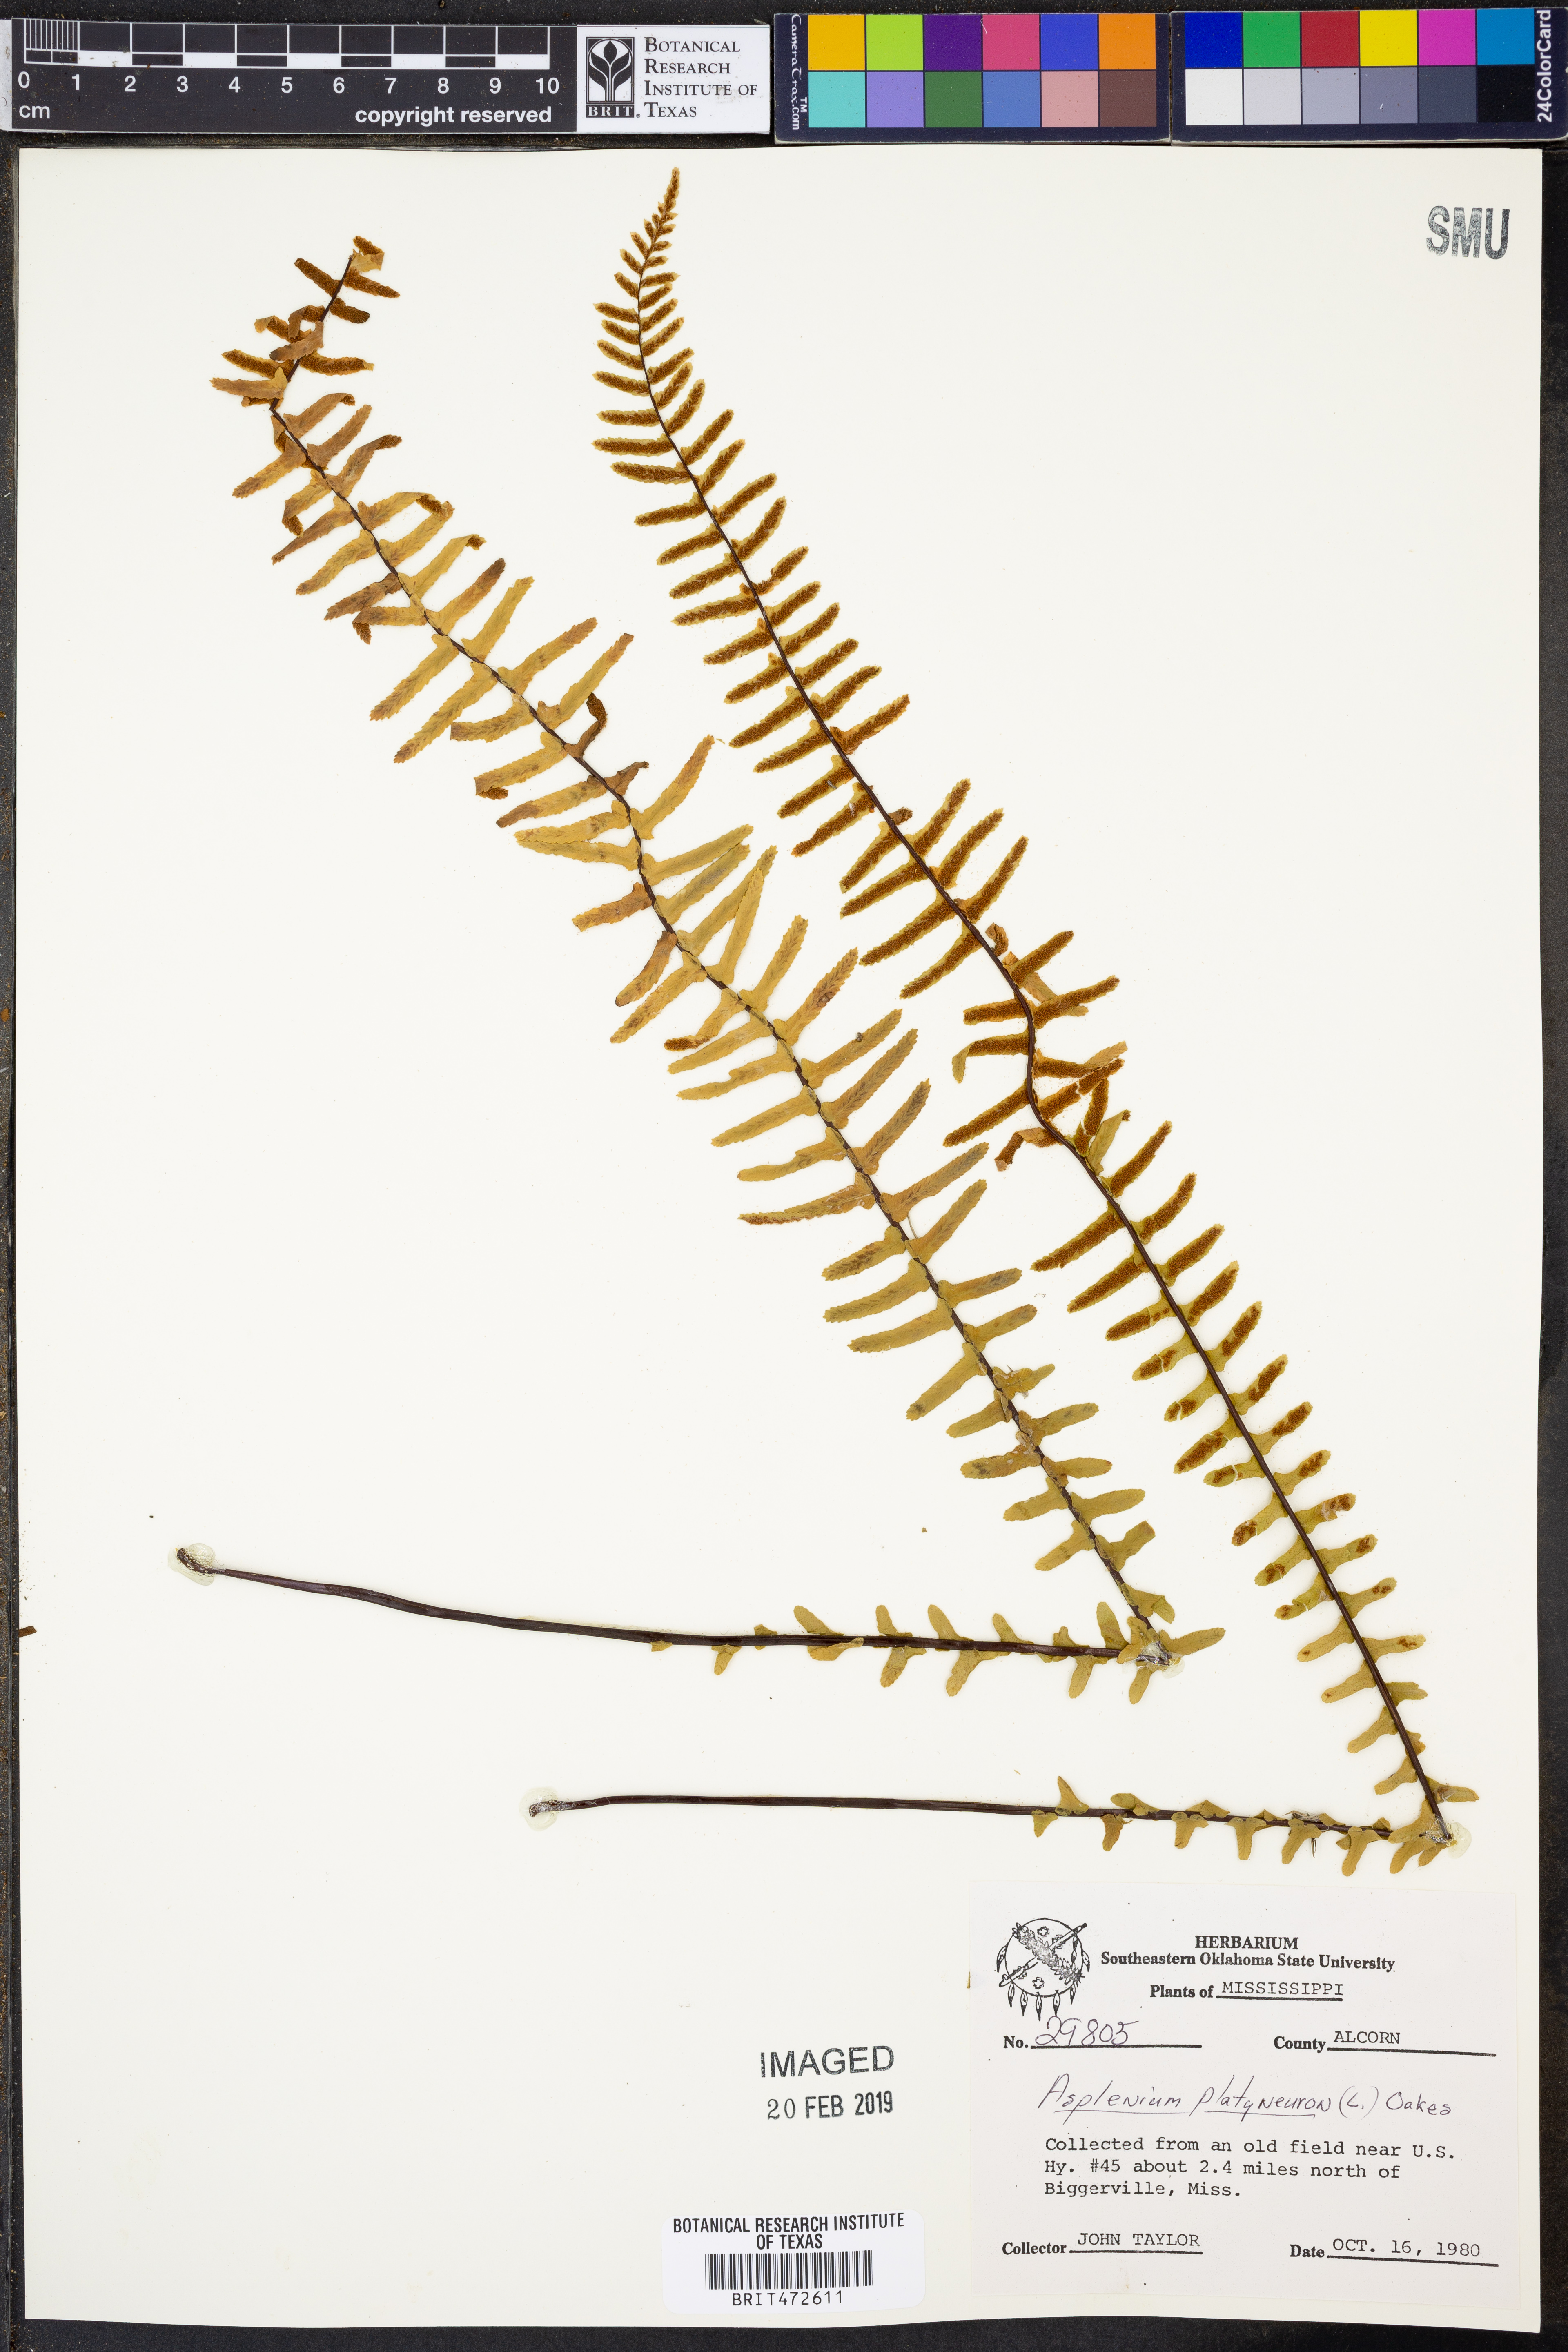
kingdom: Plantae
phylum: Tracheophyta
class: Polypodiopsida
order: Polypodiales
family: Aspleniaceae
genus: Asplenium
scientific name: Asplenium platyneuron
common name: Ebony spleenwort
